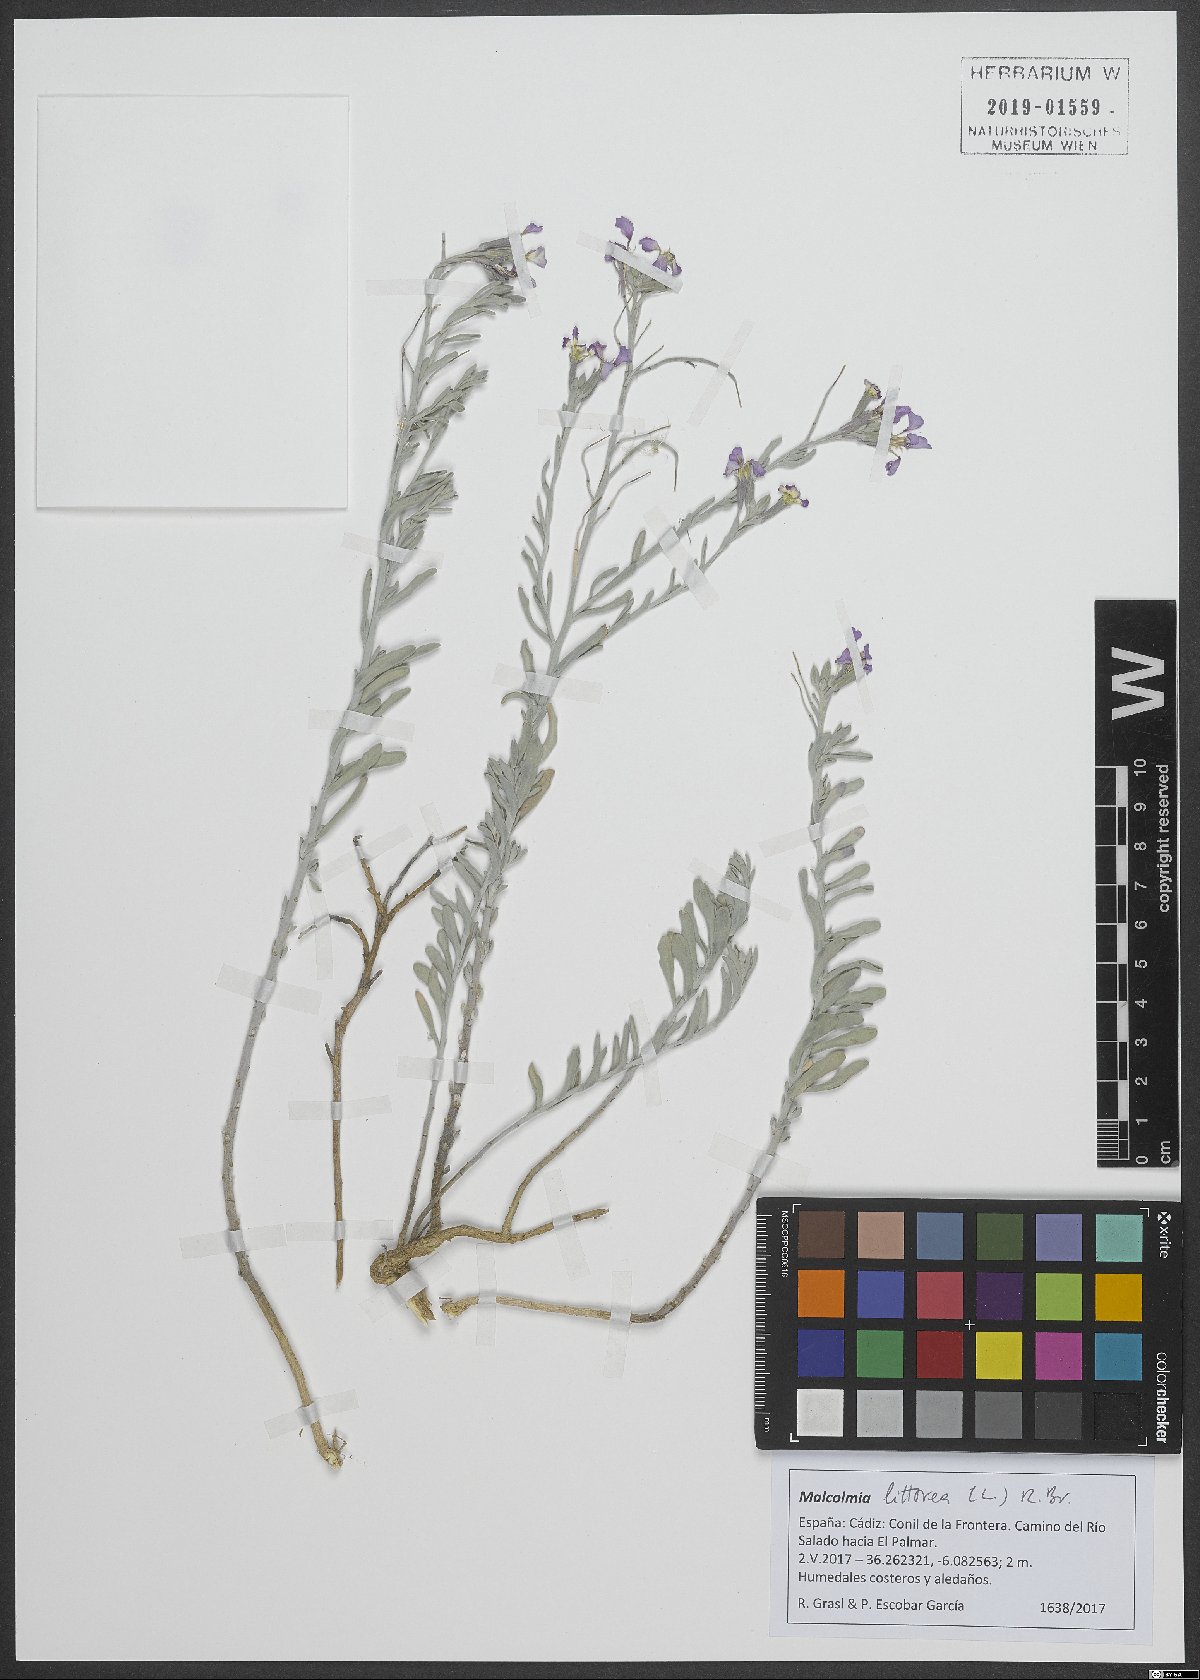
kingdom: Plantae
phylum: Tracheophyta
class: Magnoliopsida
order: Brassicales
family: Brassicaceae
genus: Marcuskochia
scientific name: Marcuskochia littorea
